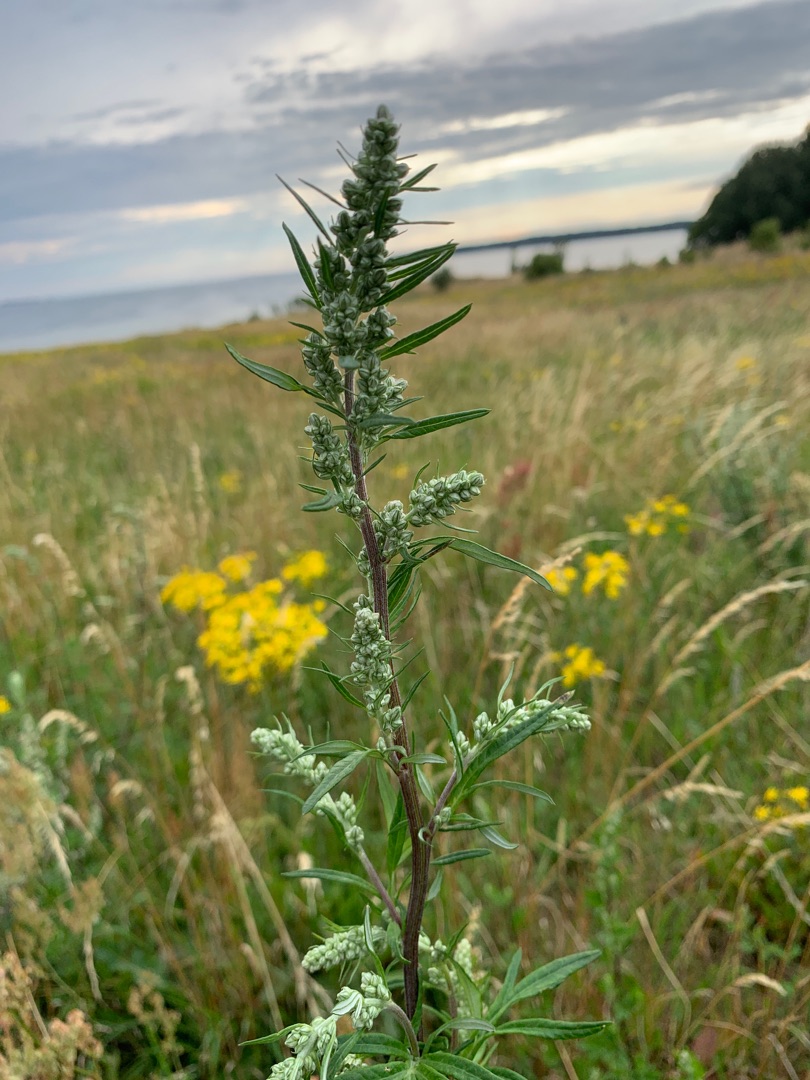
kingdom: Plantae
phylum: Tracheophyta
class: Magnoliopsida
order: Asterales
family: Asteraceae
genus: Artemisia
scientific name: Artemisia vulgaris
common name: Grå-bynke
